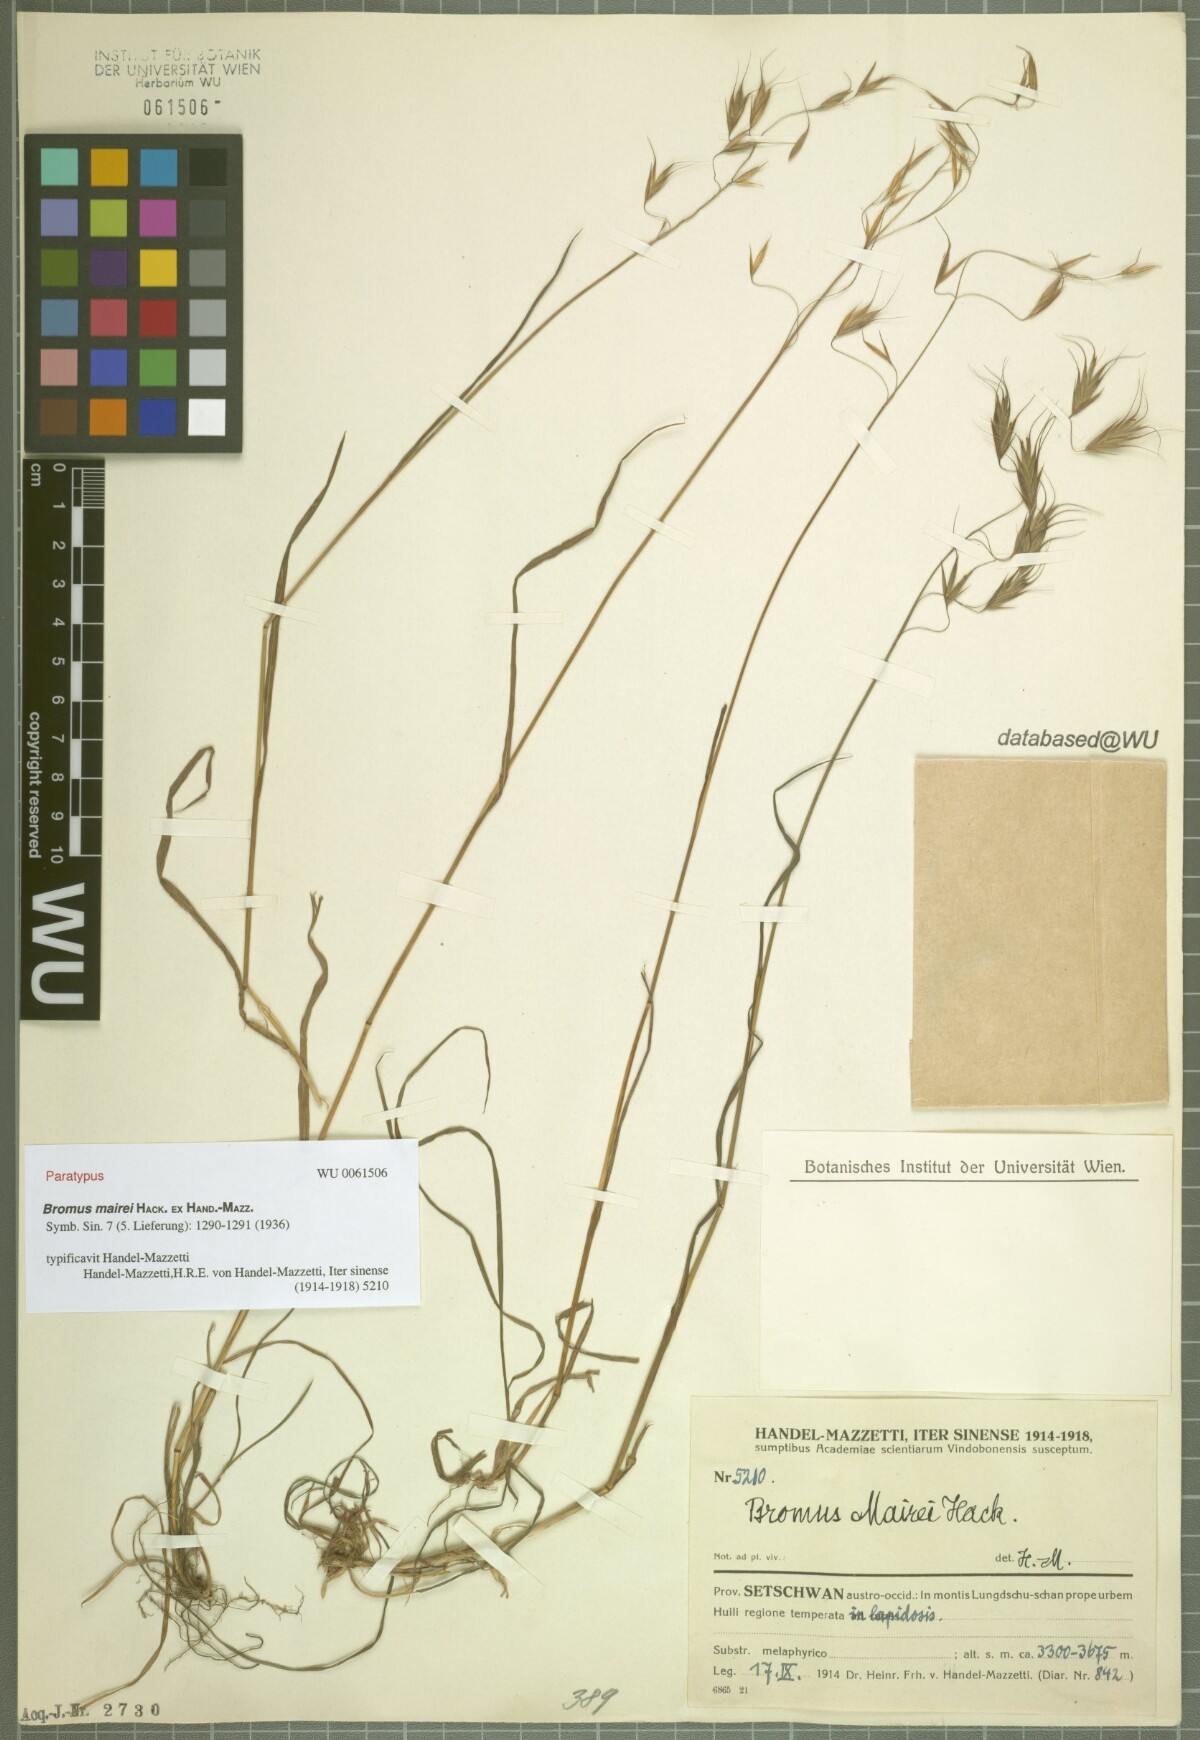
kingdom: Plantae
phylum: Tracheophyta
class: Liliopsida
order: Poales
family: Poaceae
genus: Bromus
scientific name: Bromus mairei
